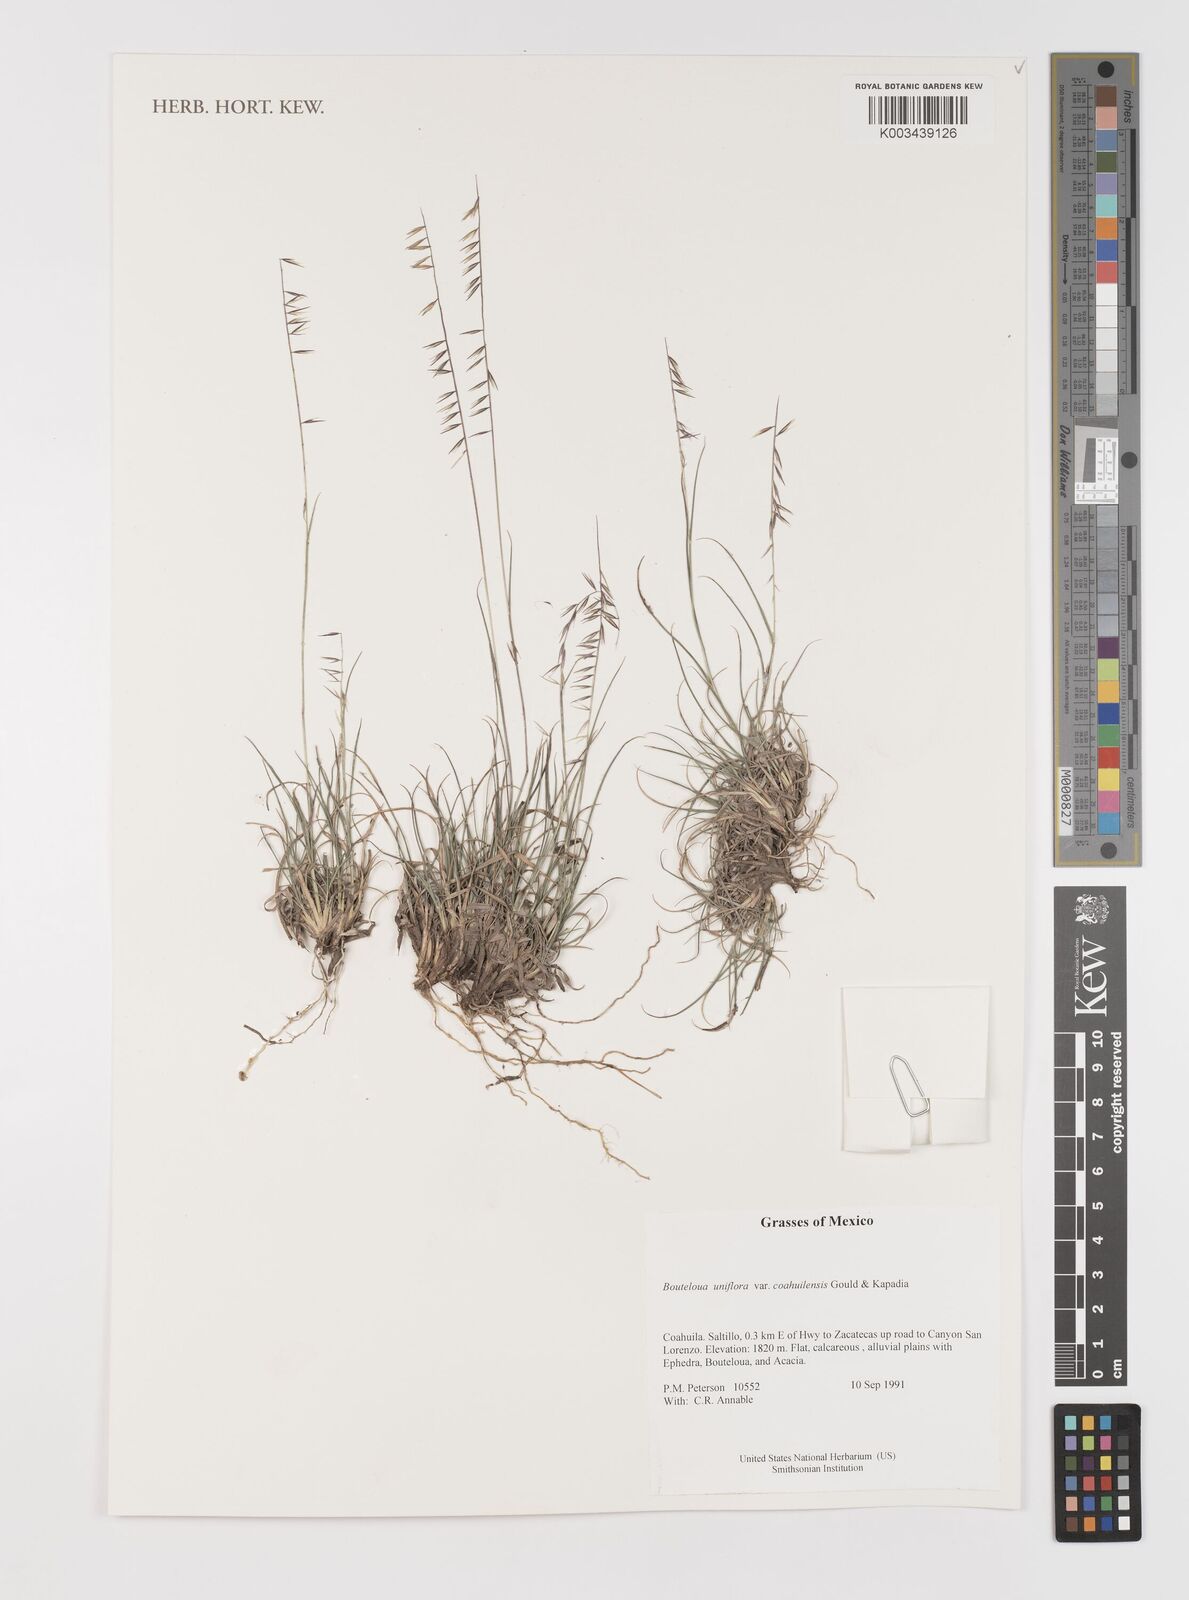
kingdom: Plantae
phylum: Tracheophyta
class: Liliopsida
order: Poales
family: Poaceae
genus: Bouteloua
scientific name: Bouteloua uniflora
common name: Neally's grama
